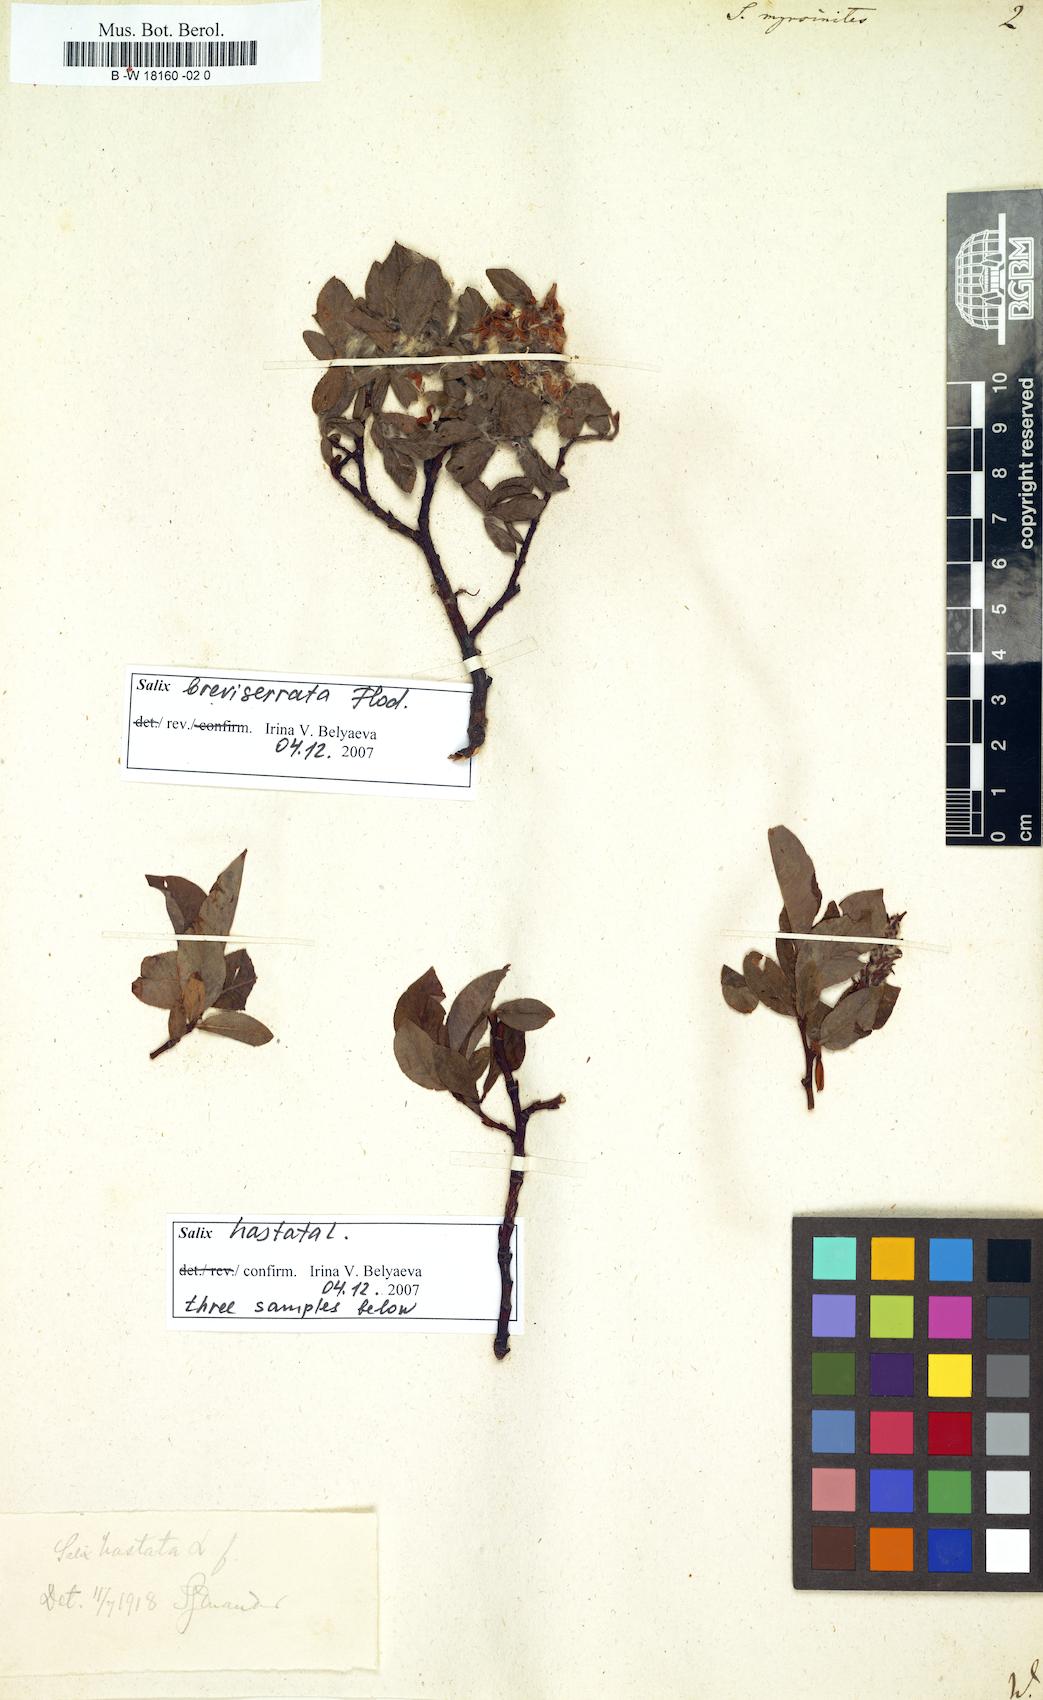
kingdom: Plantae
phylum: Tracheophyta
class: Magnoliopsida
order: Malpighiales
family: Salicaceae
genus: Salix
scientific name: Salix myrsinites
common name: Myrtle willow
